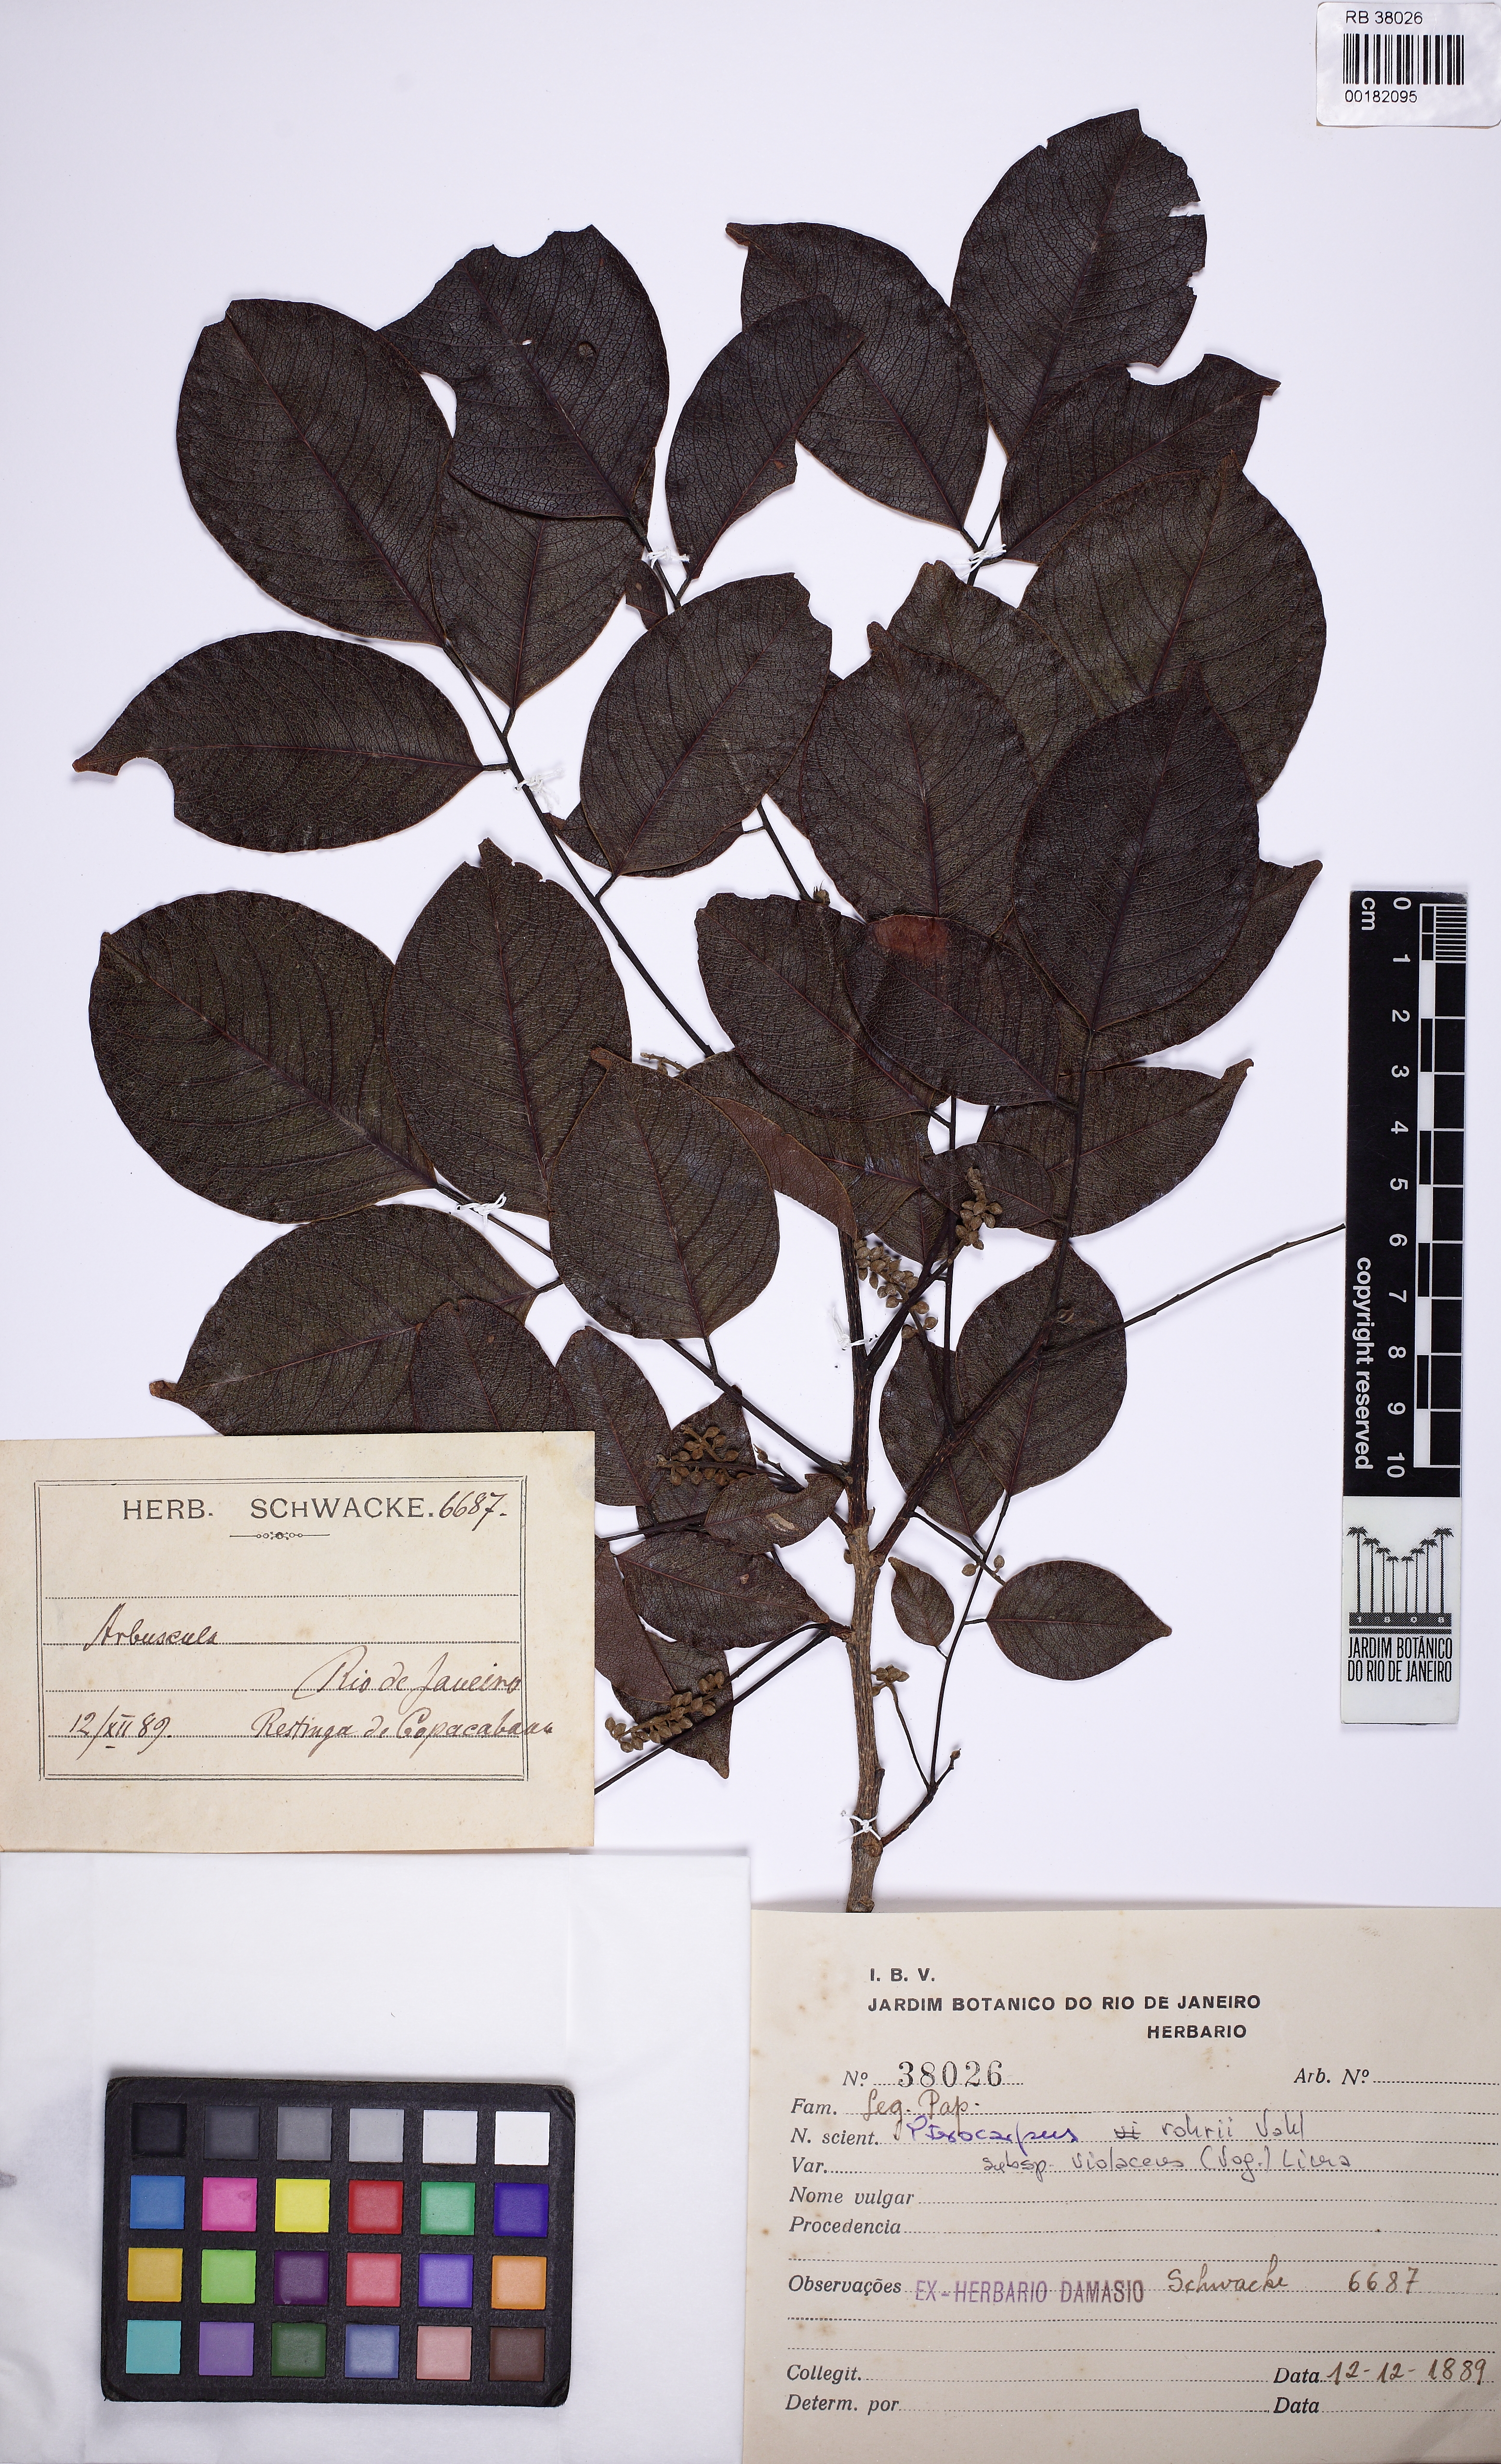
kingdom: Plantae
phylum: Tracheophyta
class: Magnoliopsida
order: Fabales
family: Fabaceae
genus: Pterocarpus
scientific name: Pterocarpus rohrii
